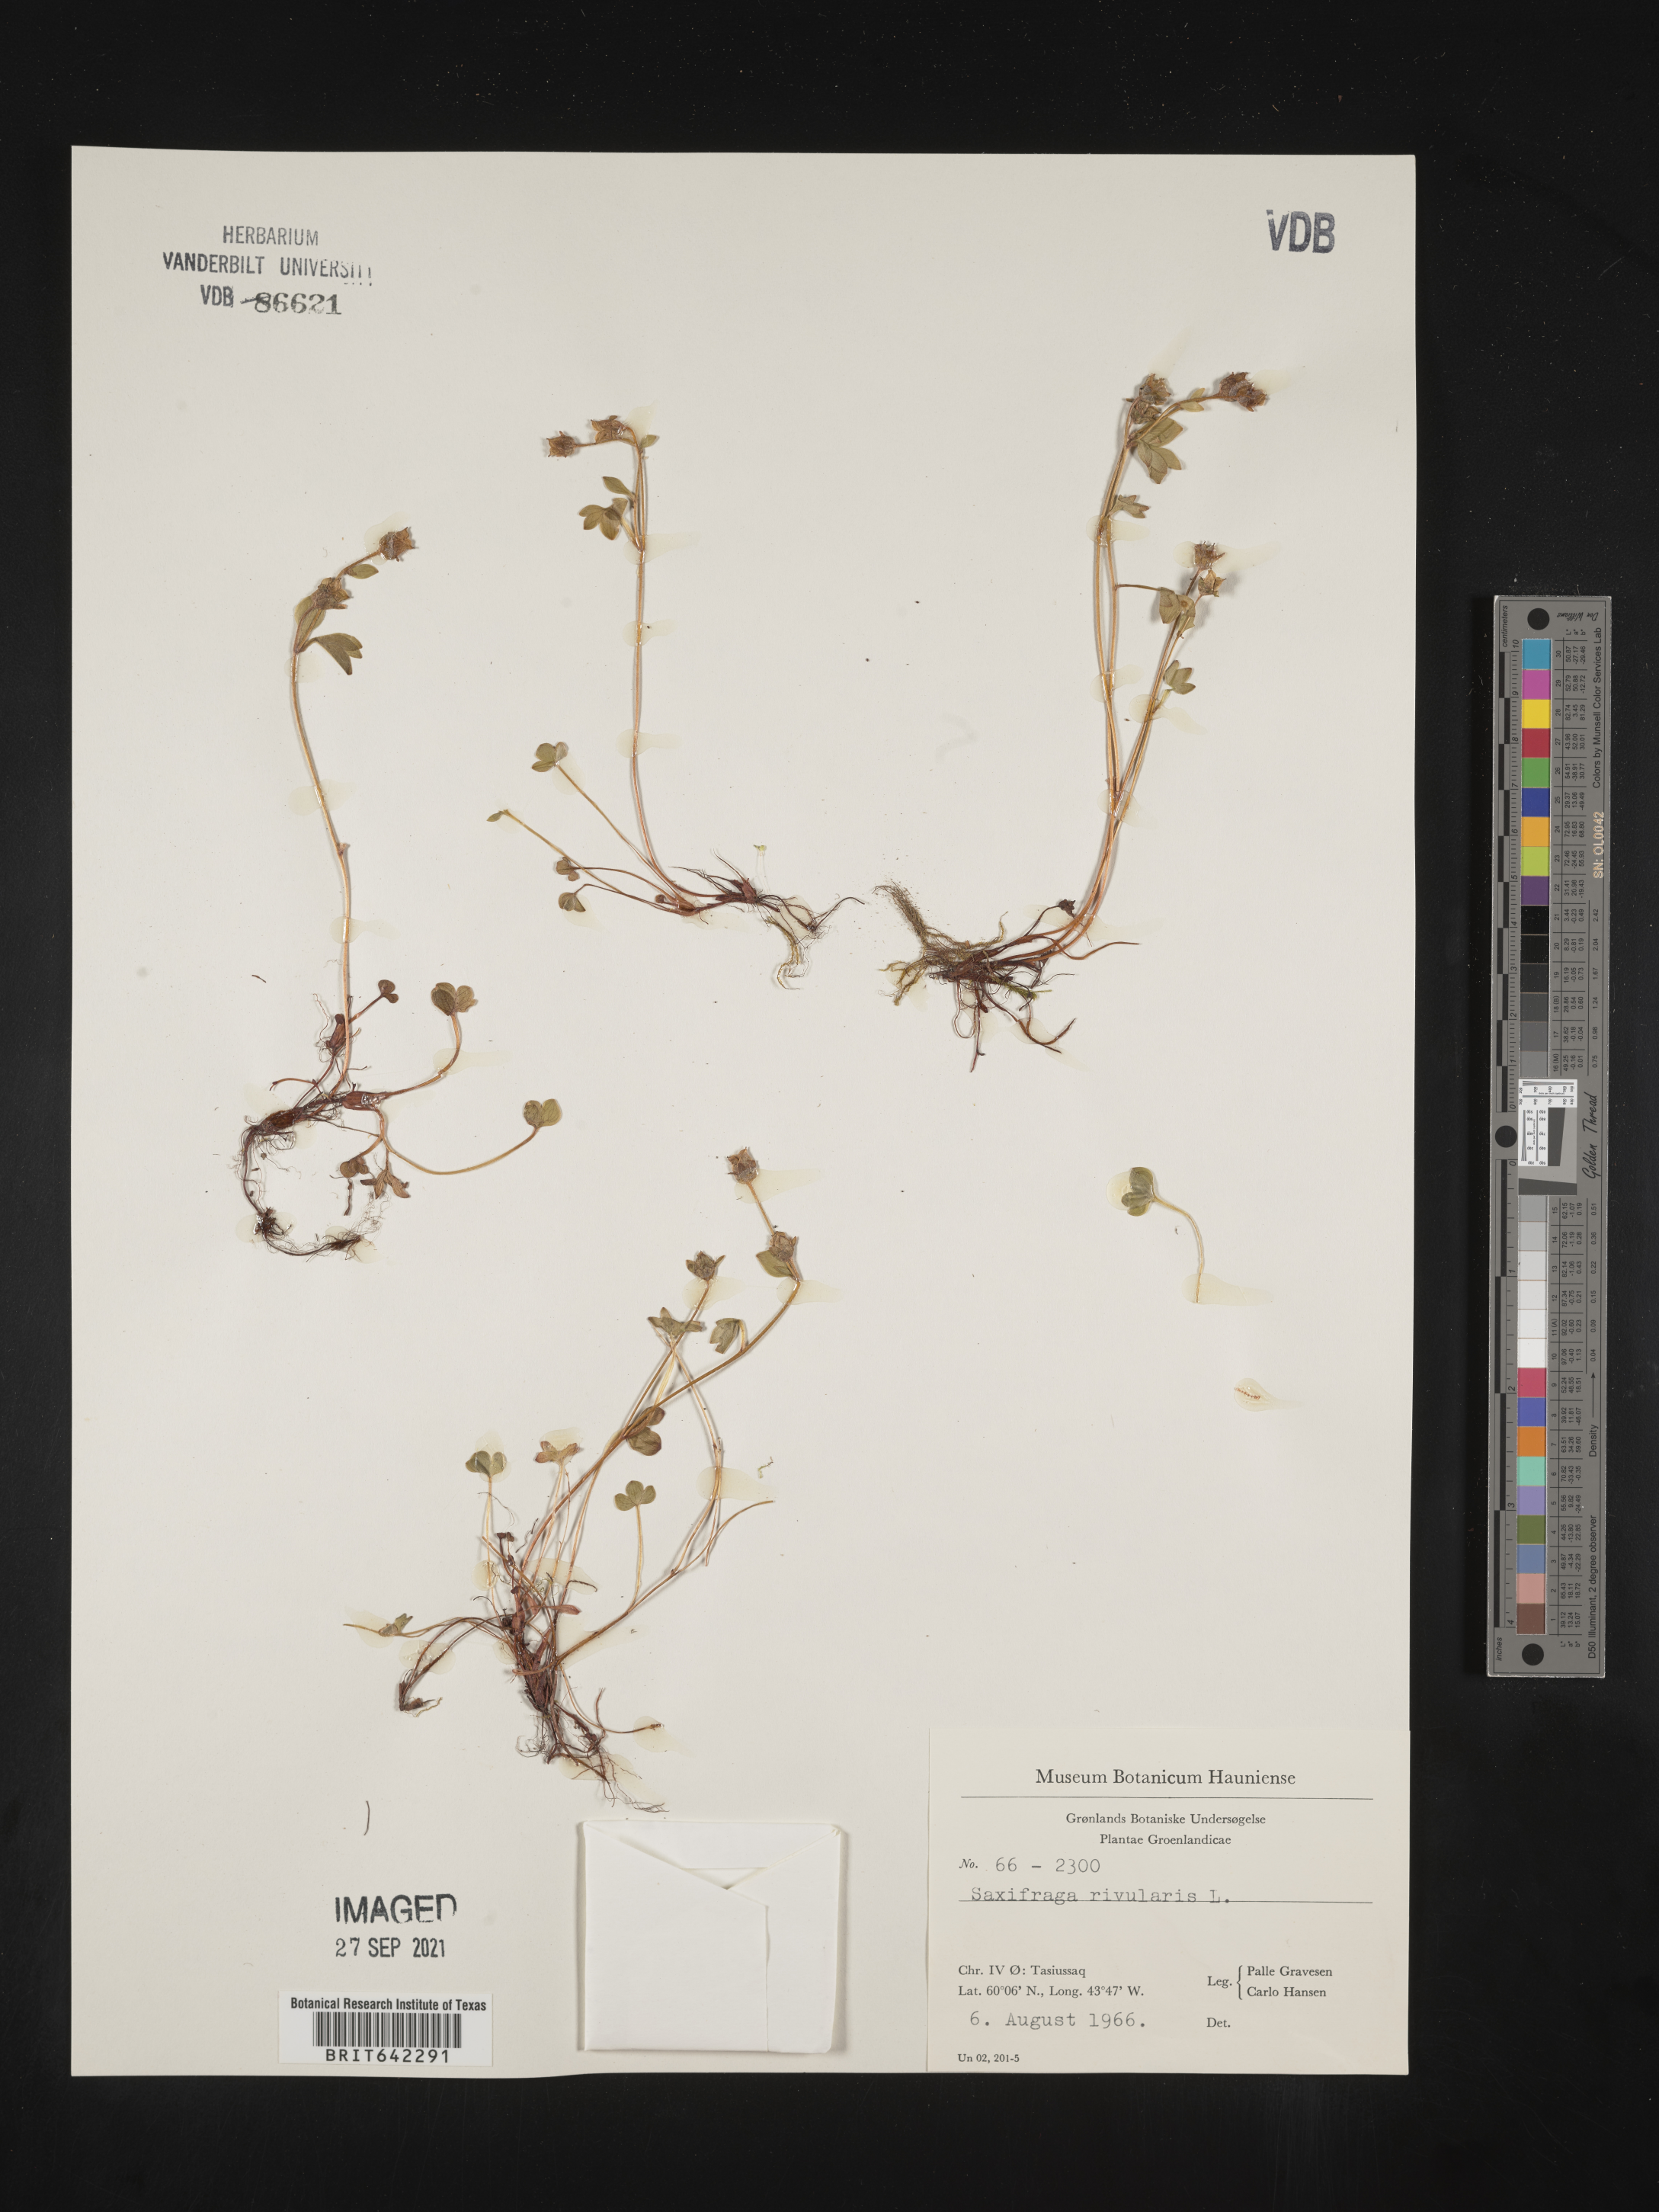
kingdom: Plantae
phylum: Tracheophyta
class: Magnoliopsida
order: Saxifragales
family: Saxifragaceae
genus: Saxifraga
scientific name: Saxifraga
